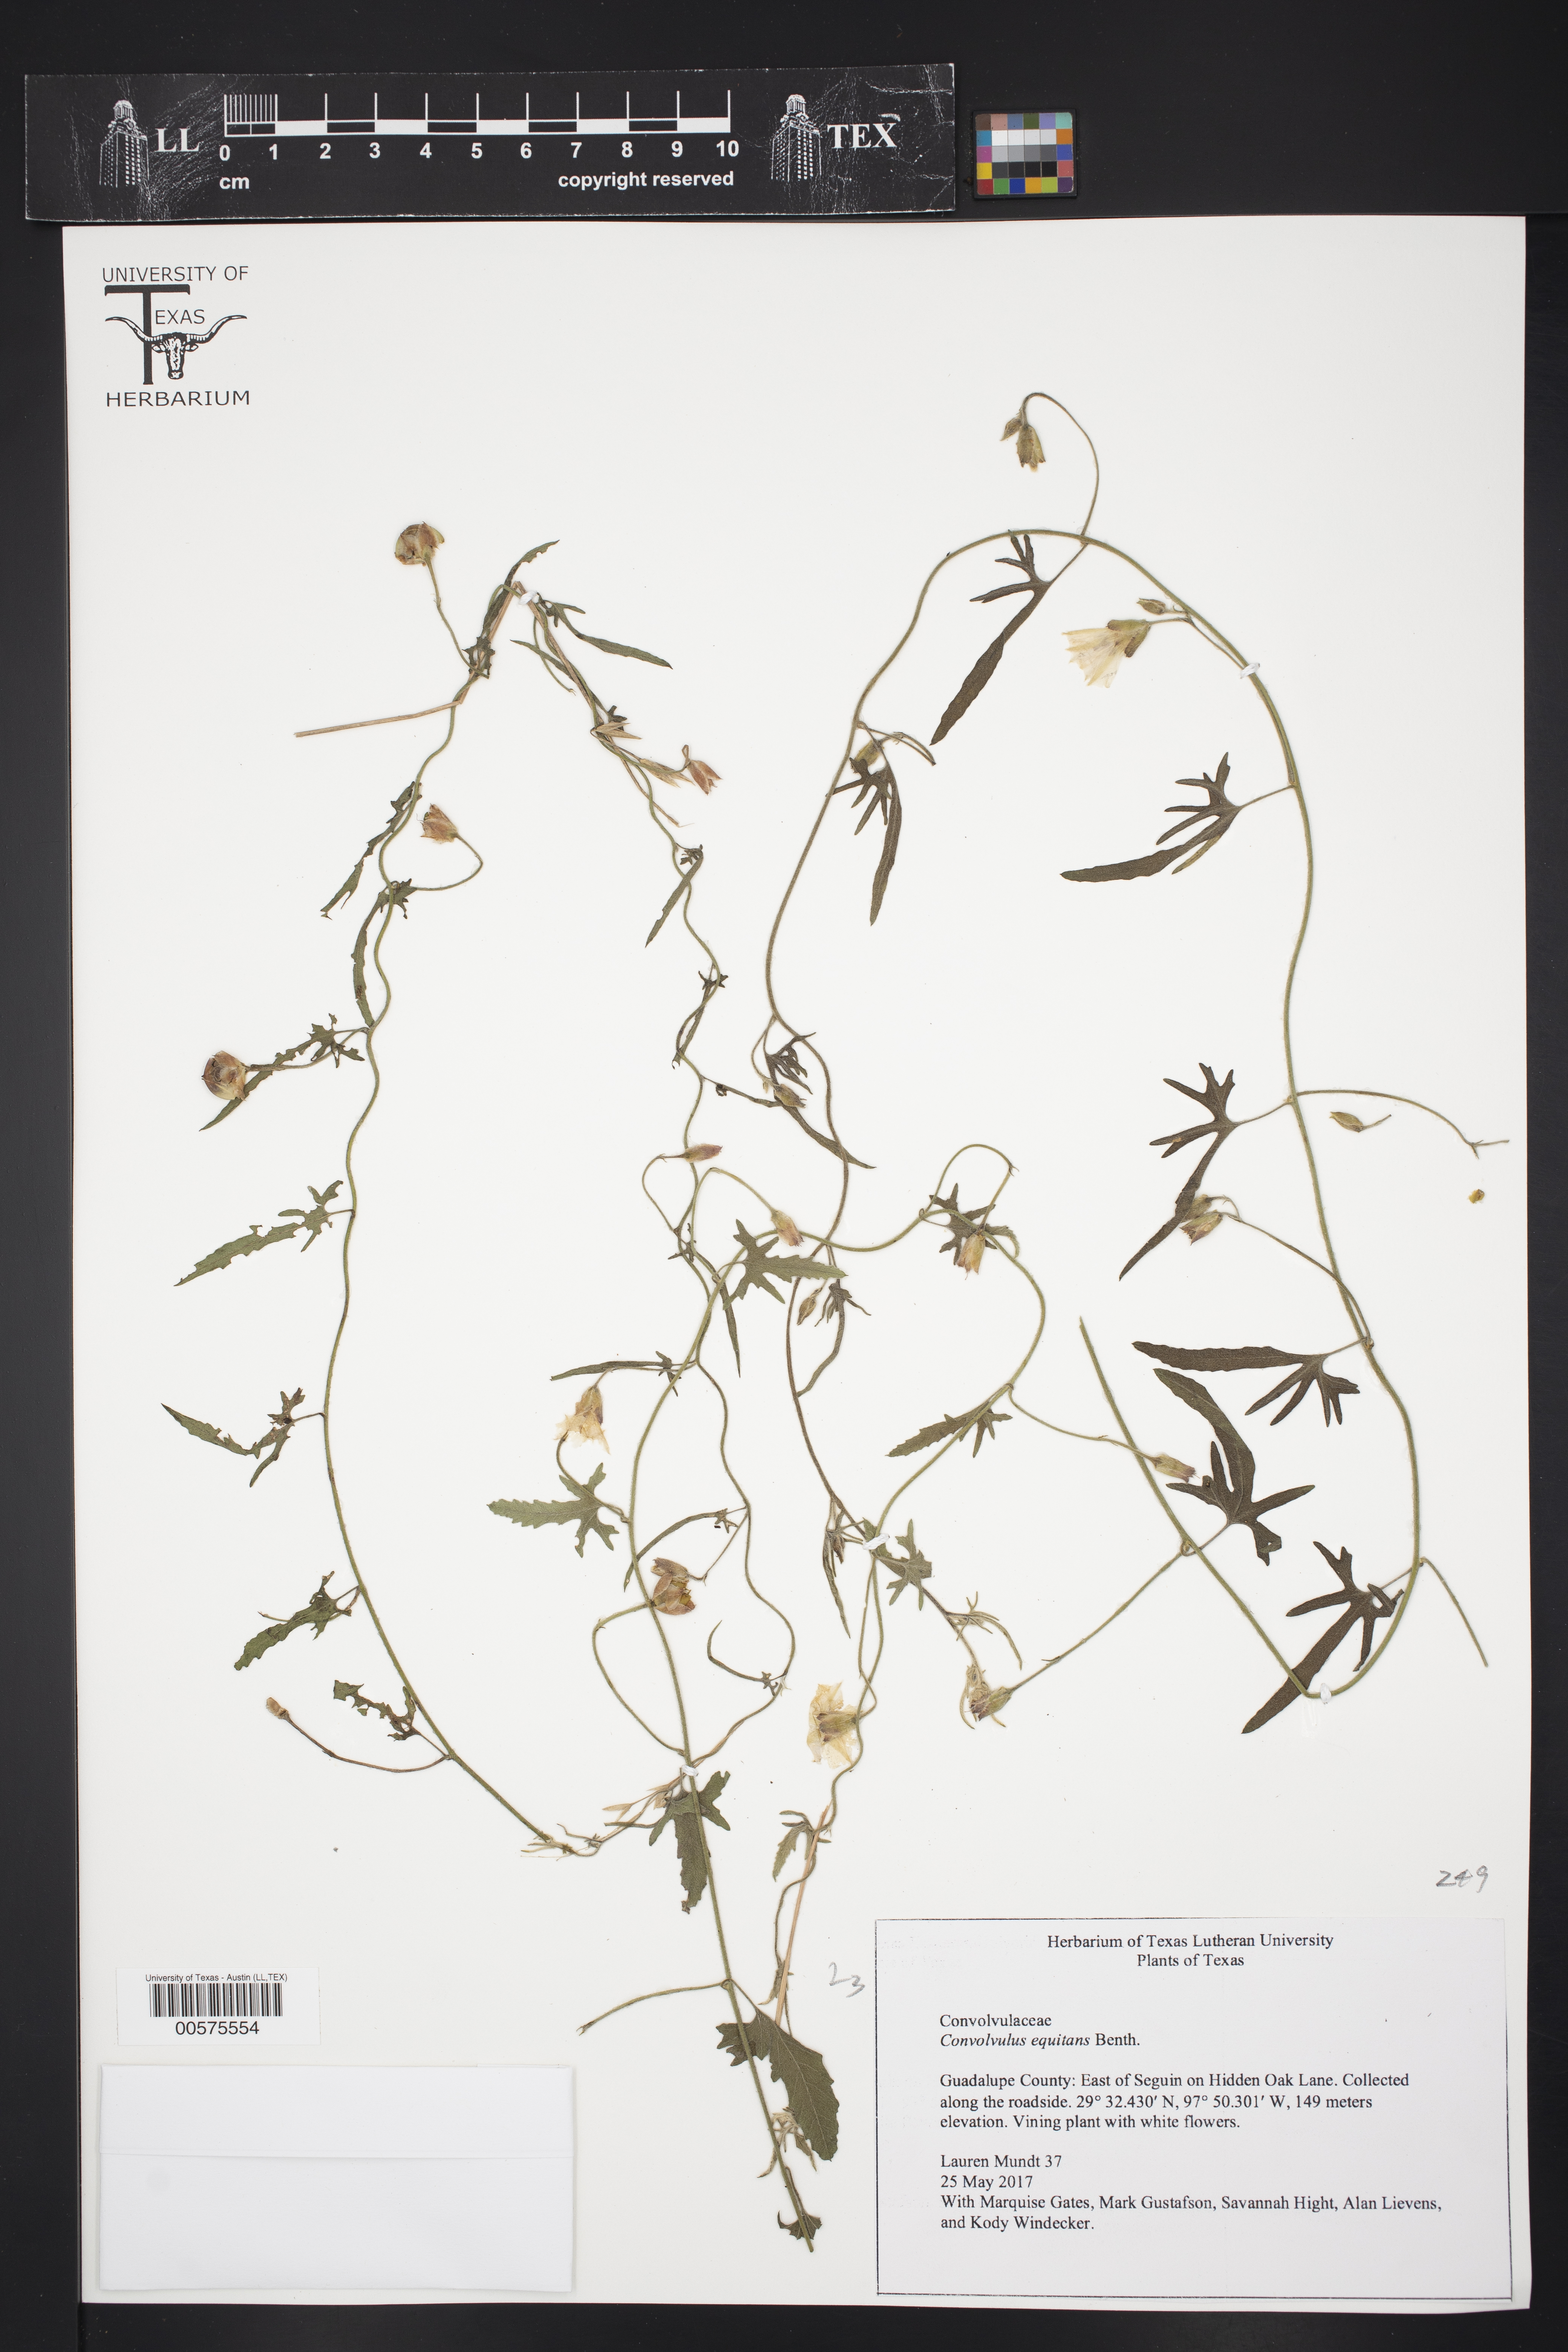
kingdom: Plantae
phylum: Tracheophyta
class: Magnoliopsida
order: Solanales
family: Convolvulaceae
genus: Convolvulus
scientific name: Convolvulus equitans
